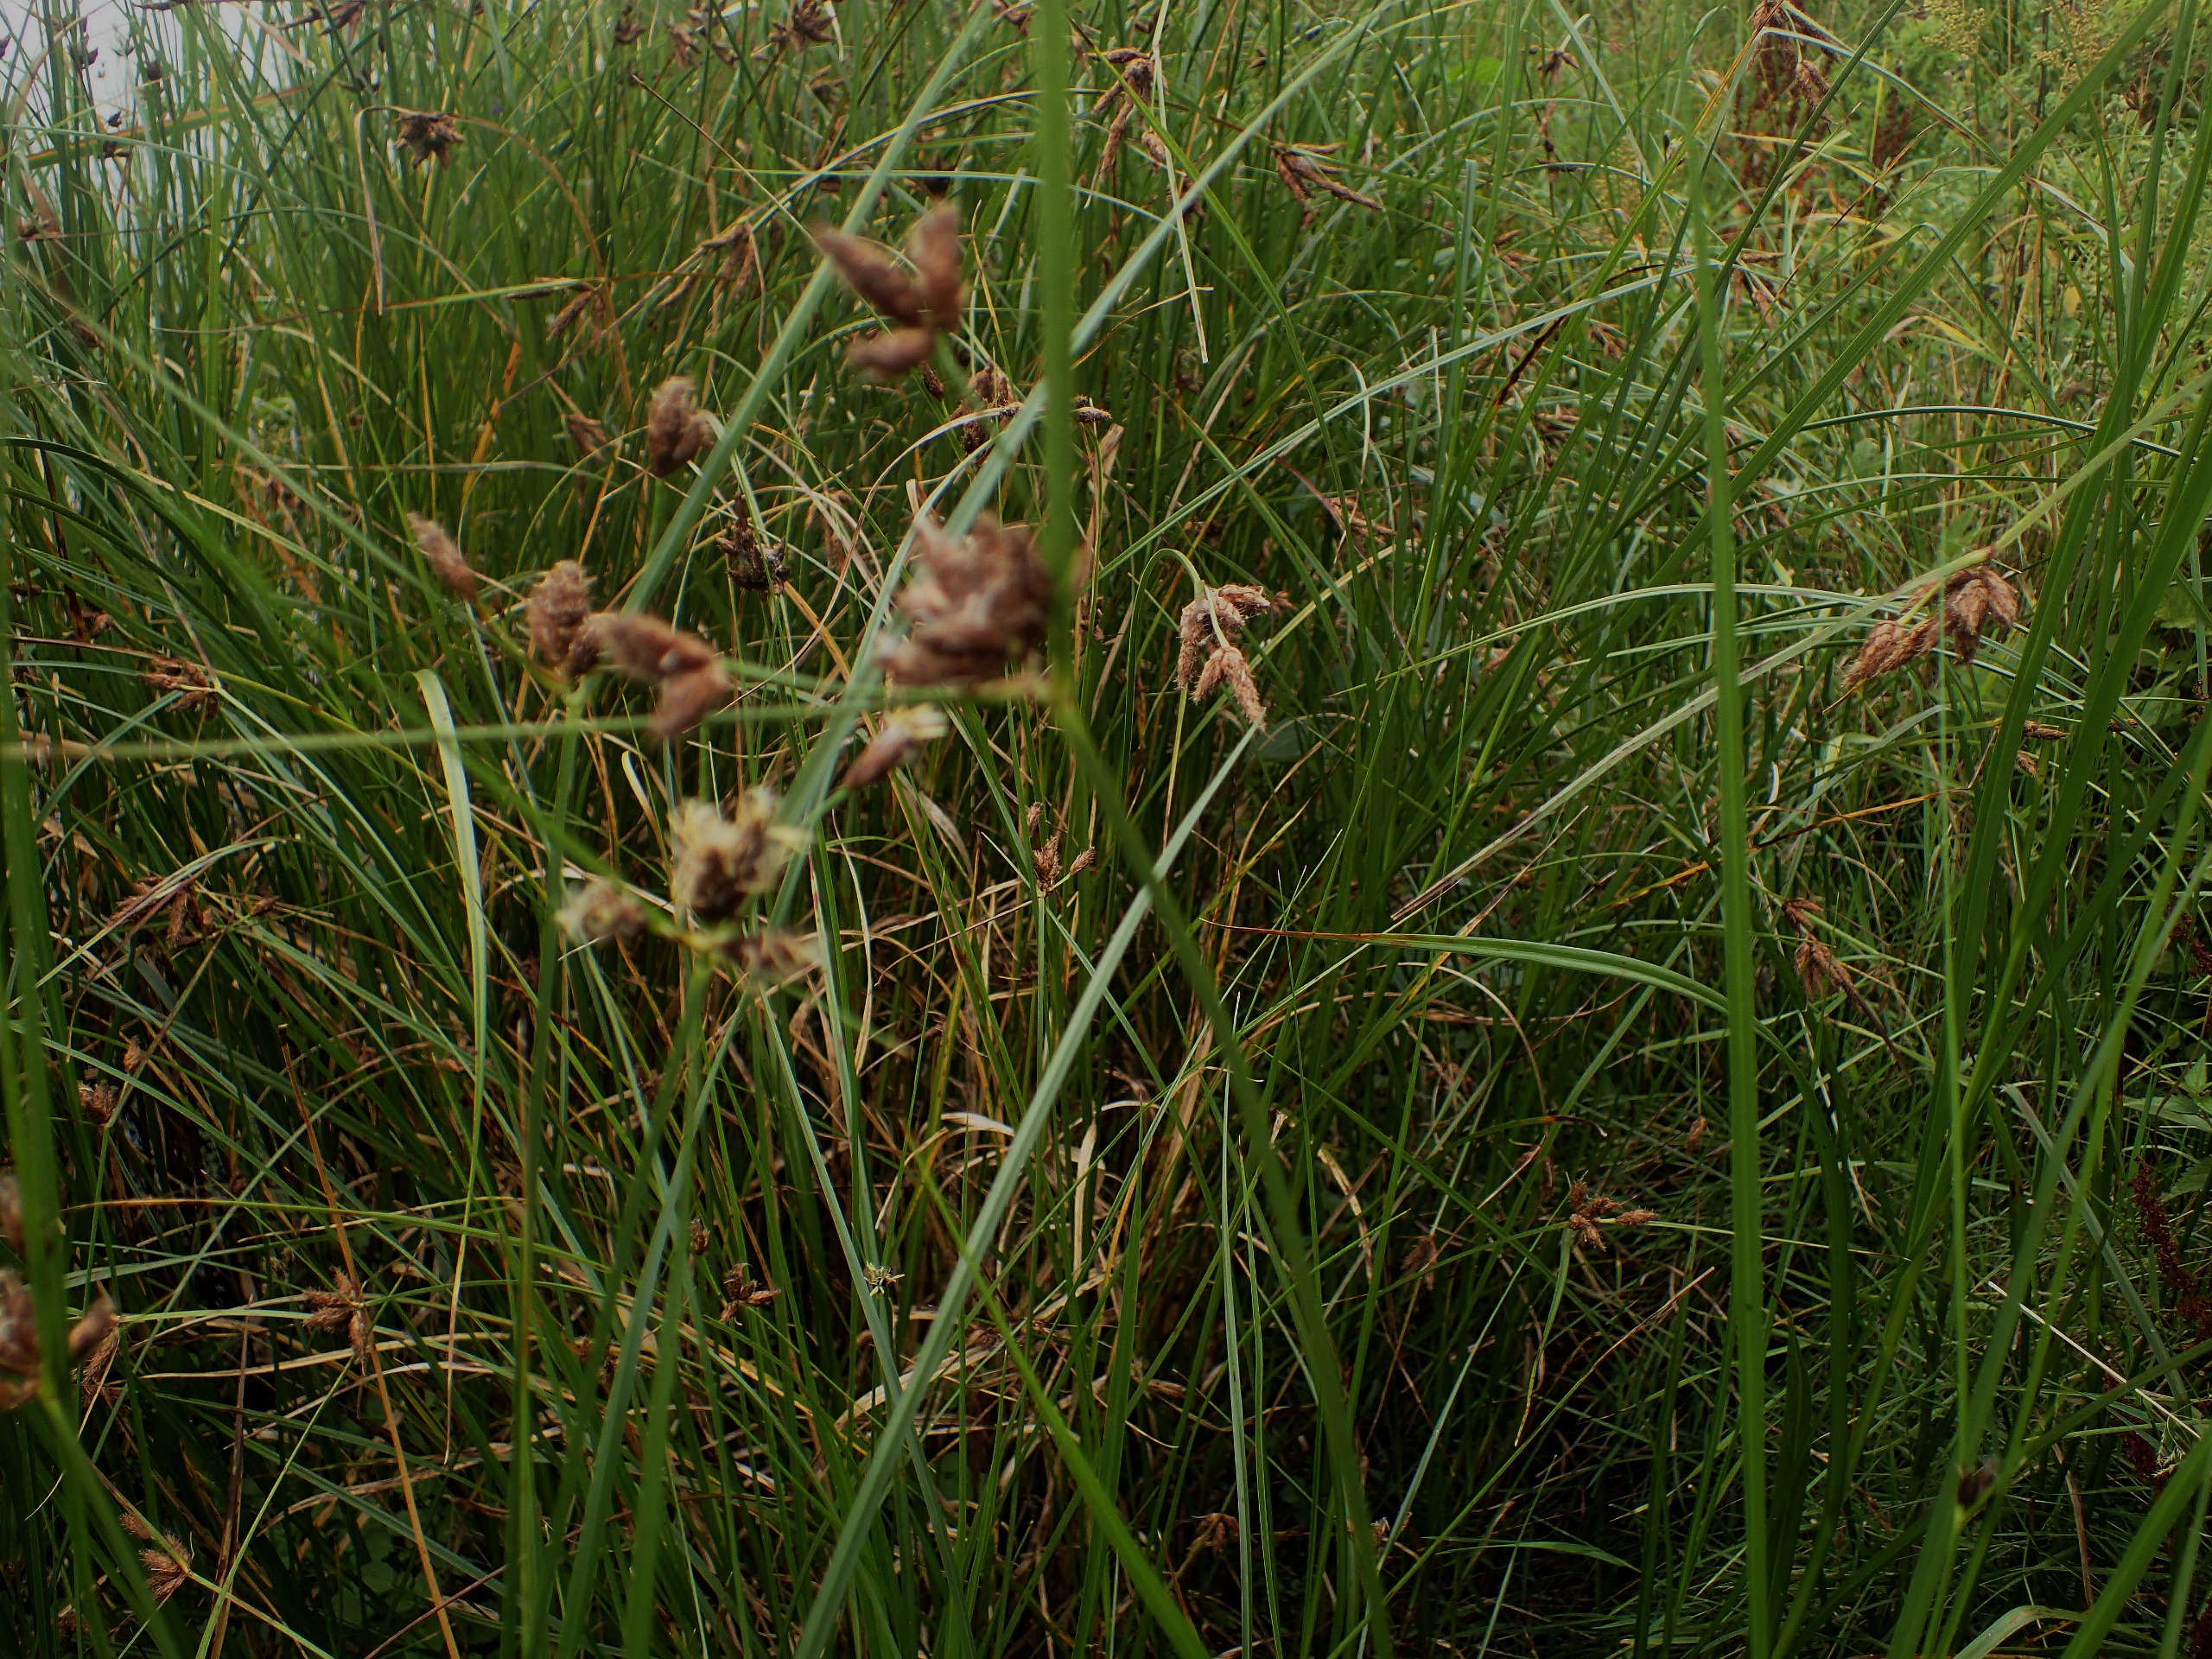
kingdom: Plantae
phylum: Tracheophyta
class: Liliopsida
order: Poales
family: Cyperaceae
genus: Bolboschoenus
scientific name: Bolboschoenus maritimus
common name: Strand-kogleaks
